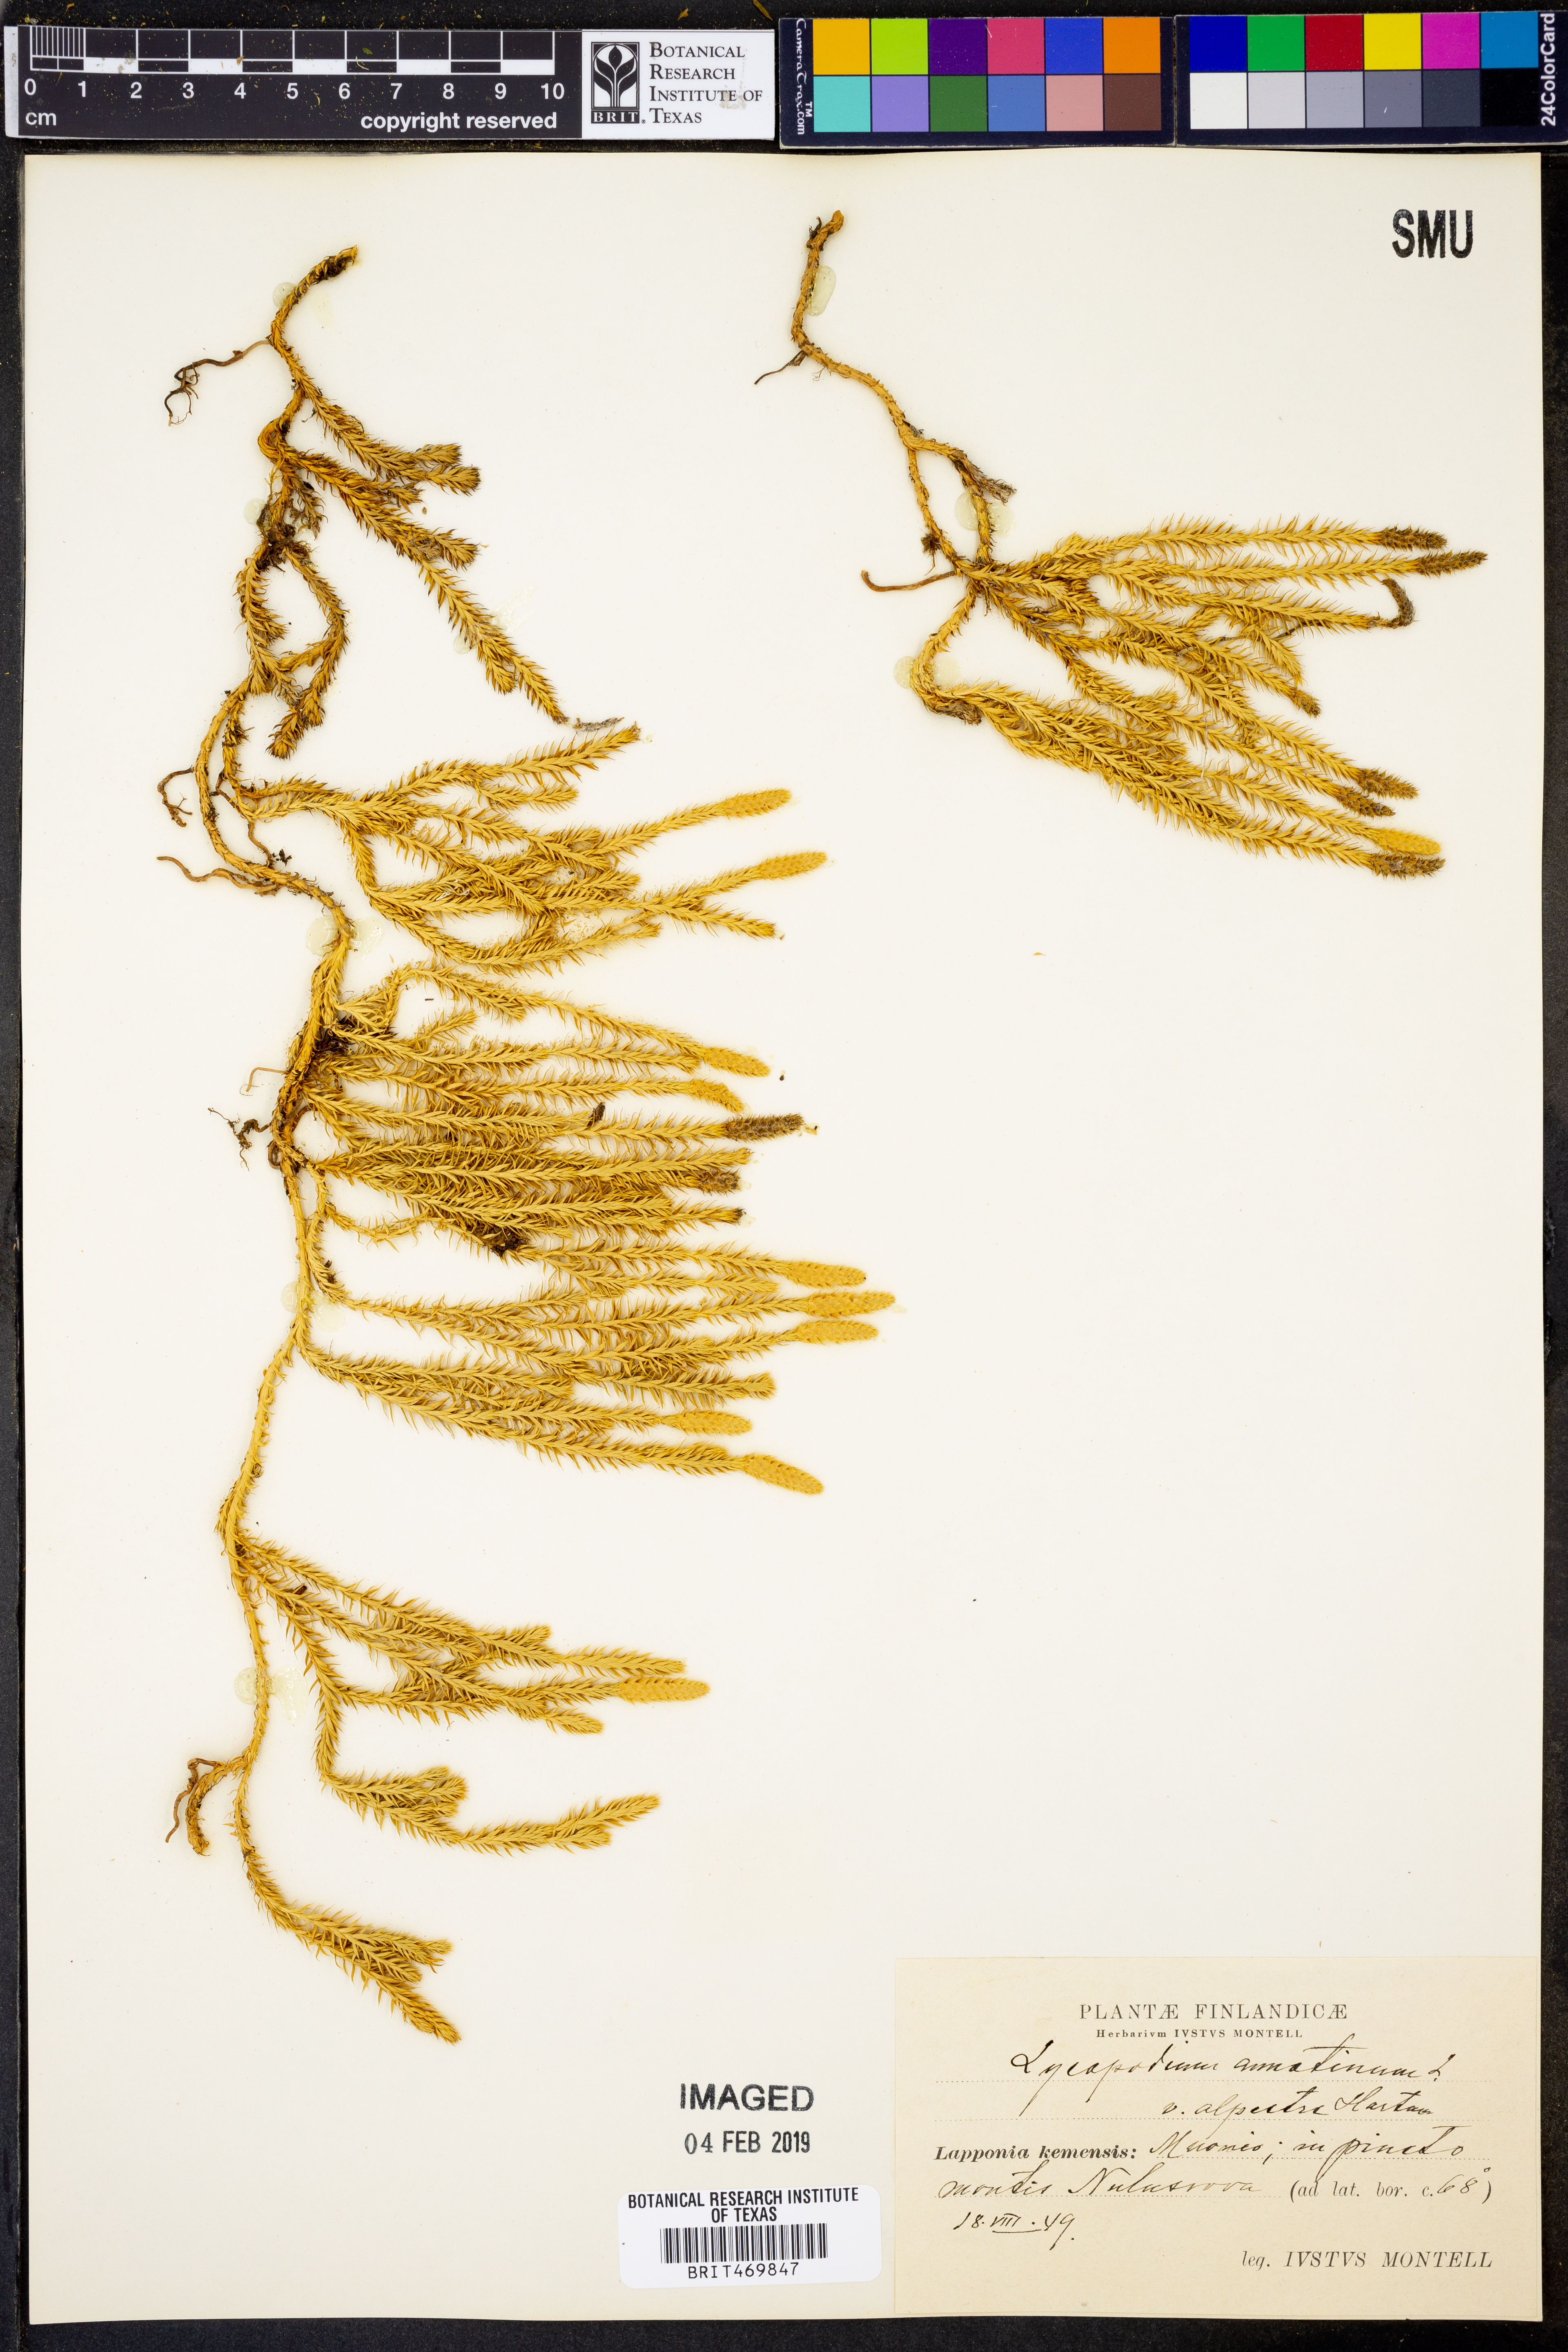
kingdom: Plantae
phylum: Tracheophyta
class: Lycopodiopsida
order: Lycopodiales
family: Lycopodiaceae
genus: Spinulum
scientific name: Spinulum annotinum
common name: Interrupted club-moss
